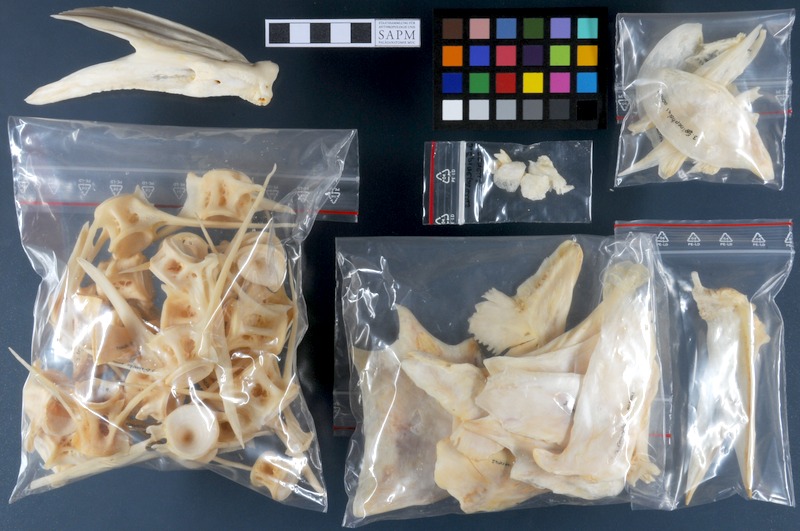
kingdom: Animalia
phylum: Chordata
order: Perciformes
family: Serranidae
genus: Epinephelus
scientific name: Epinephelus aeneus
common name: White grouper
